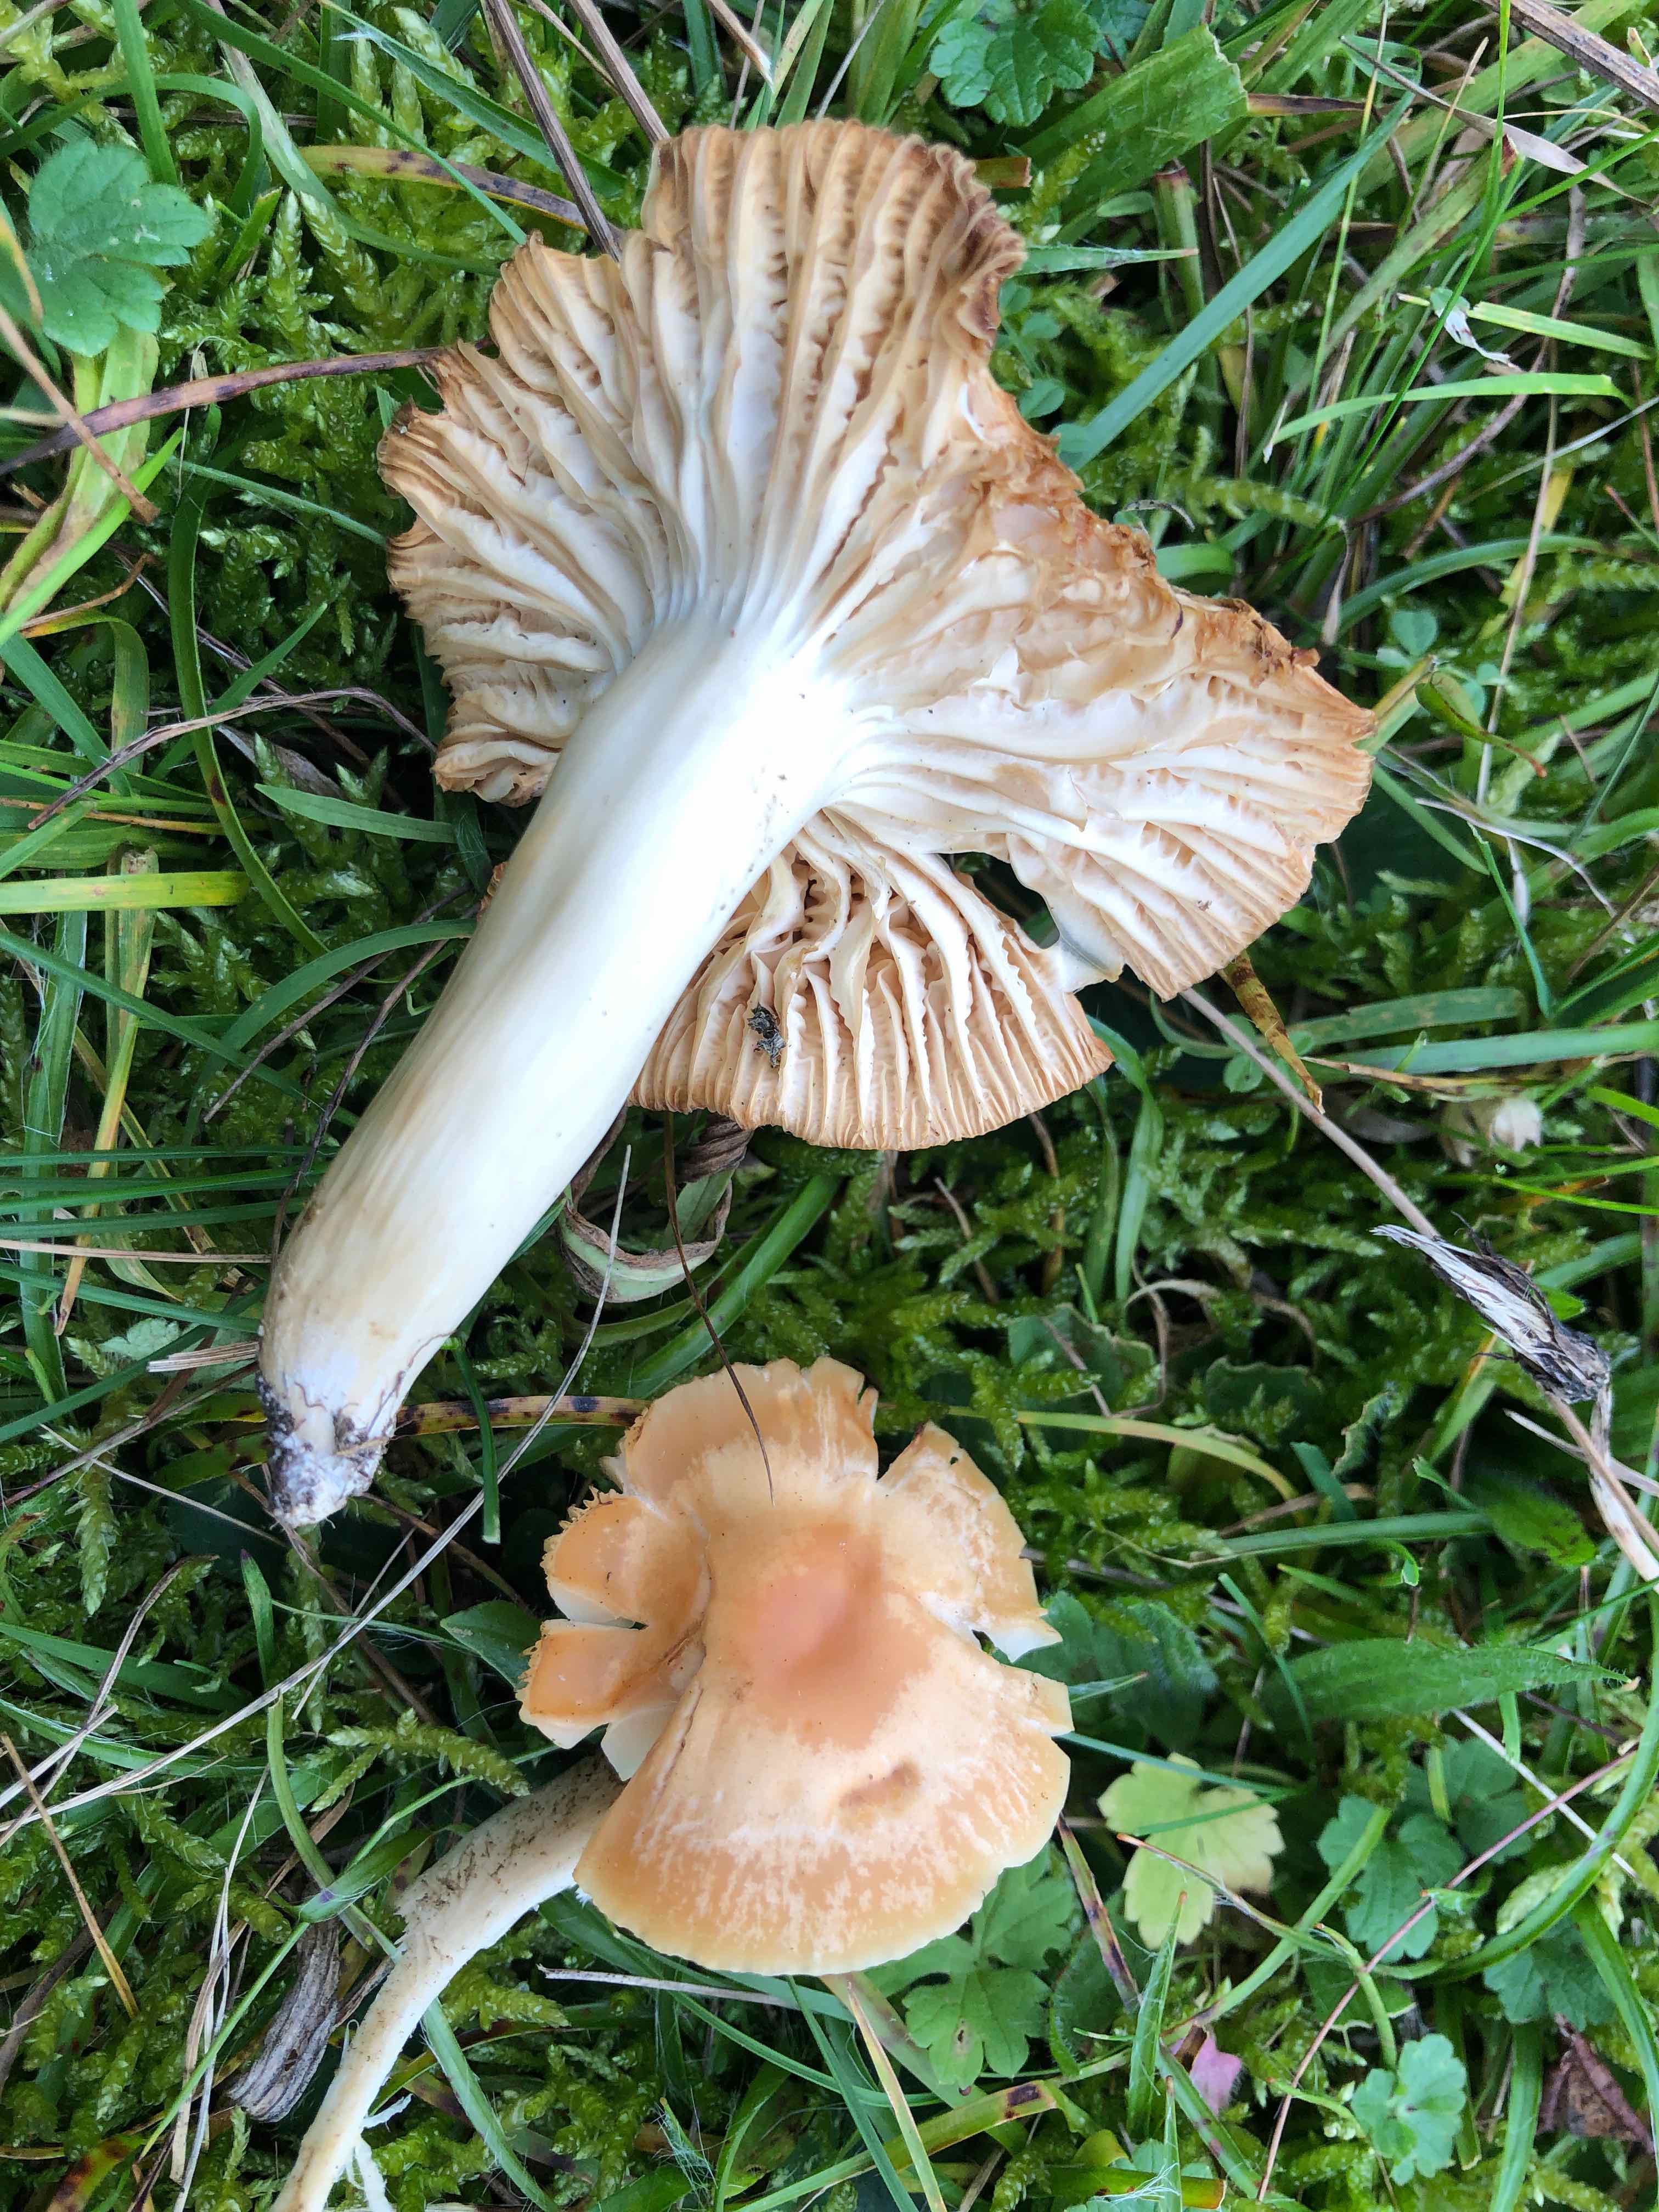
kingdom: Fungi
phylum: Basidiomycota
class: Agaricomycetes
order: Agaricales
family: Hygrophoraceae
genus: Cuphophyllus
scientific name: Cuphophyllus pratensis
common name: eng-vokshat
